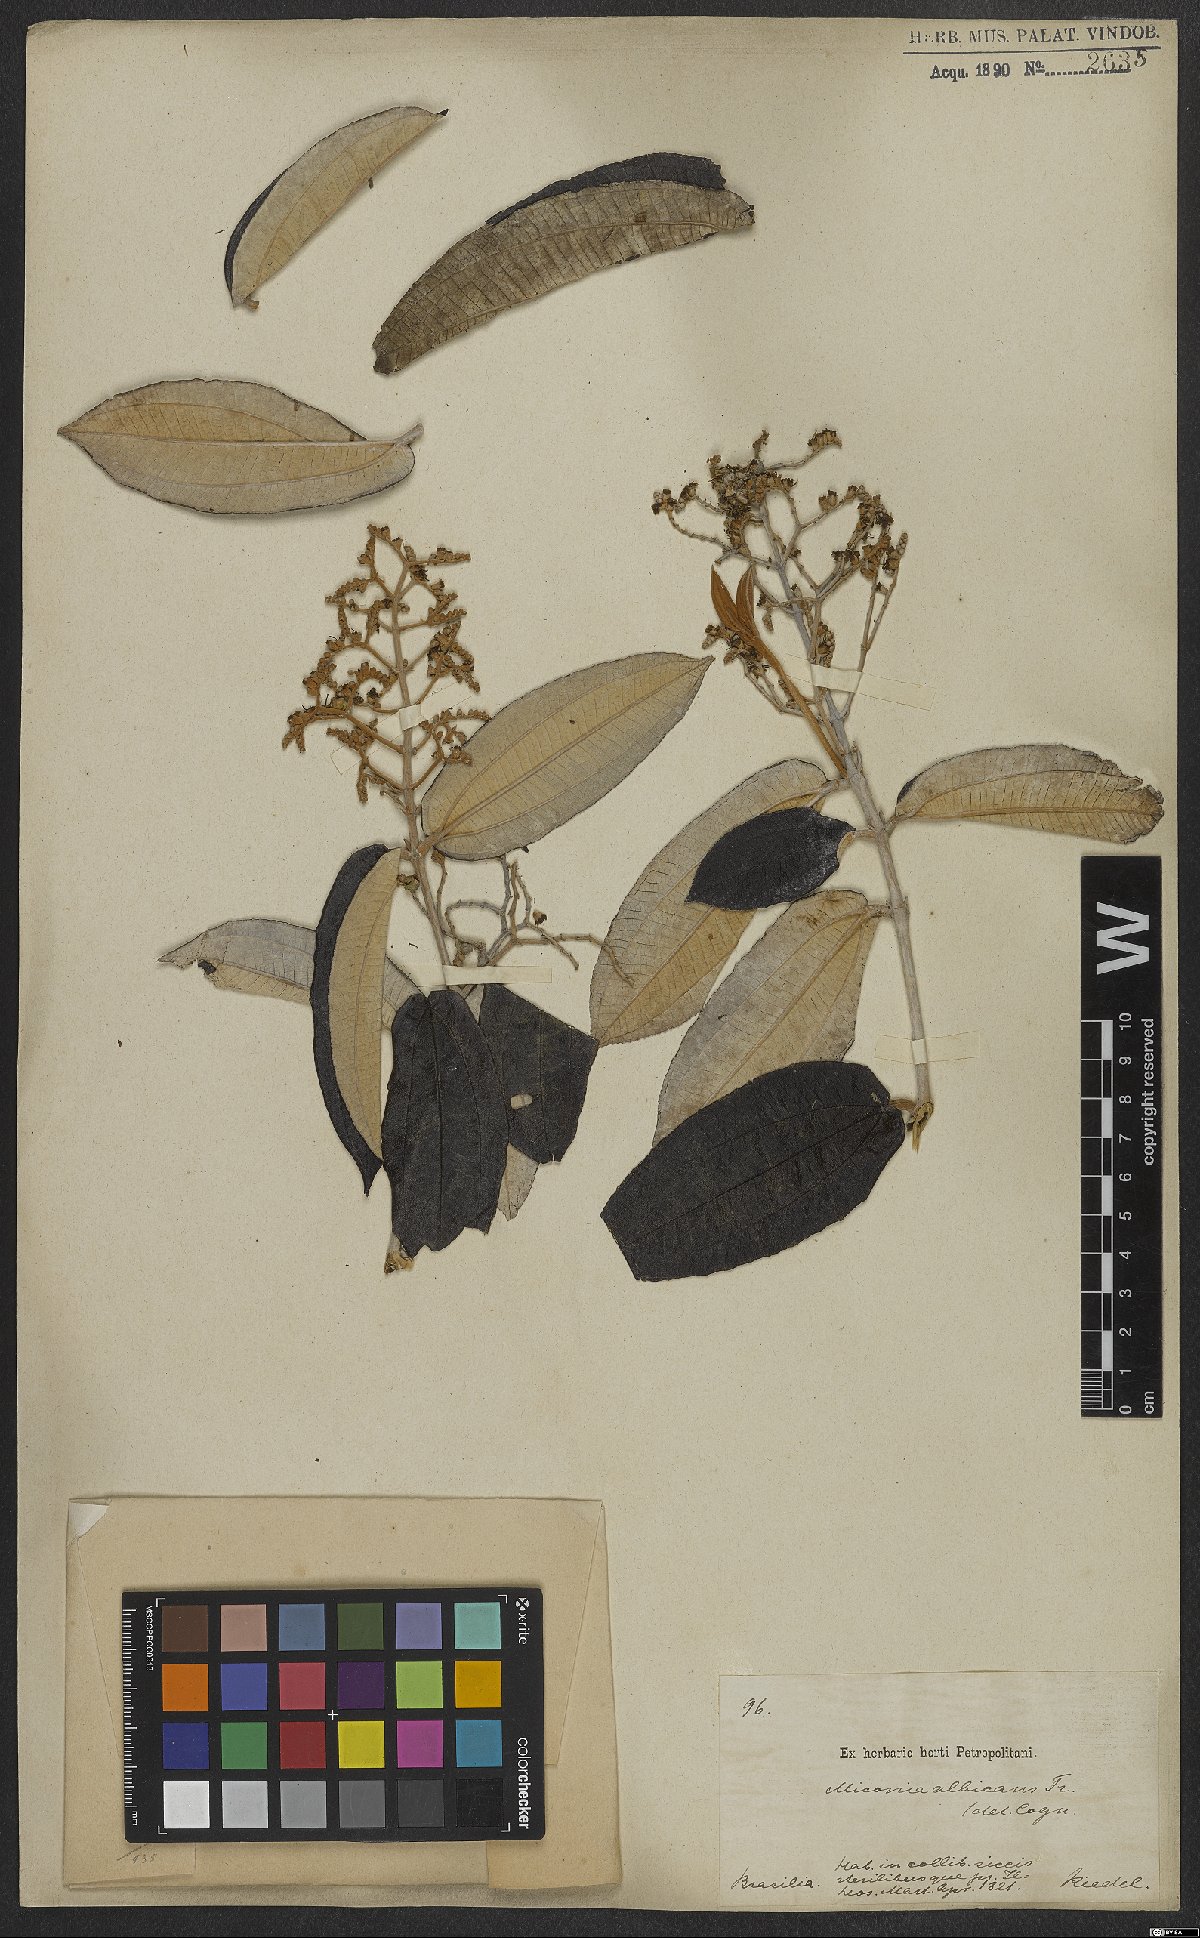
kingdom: Plantae
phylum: Tracheophyta
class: Magnoliopsida
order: Myrtales
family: Melastomataceae
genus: Miconia
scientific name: Miconia albicans
